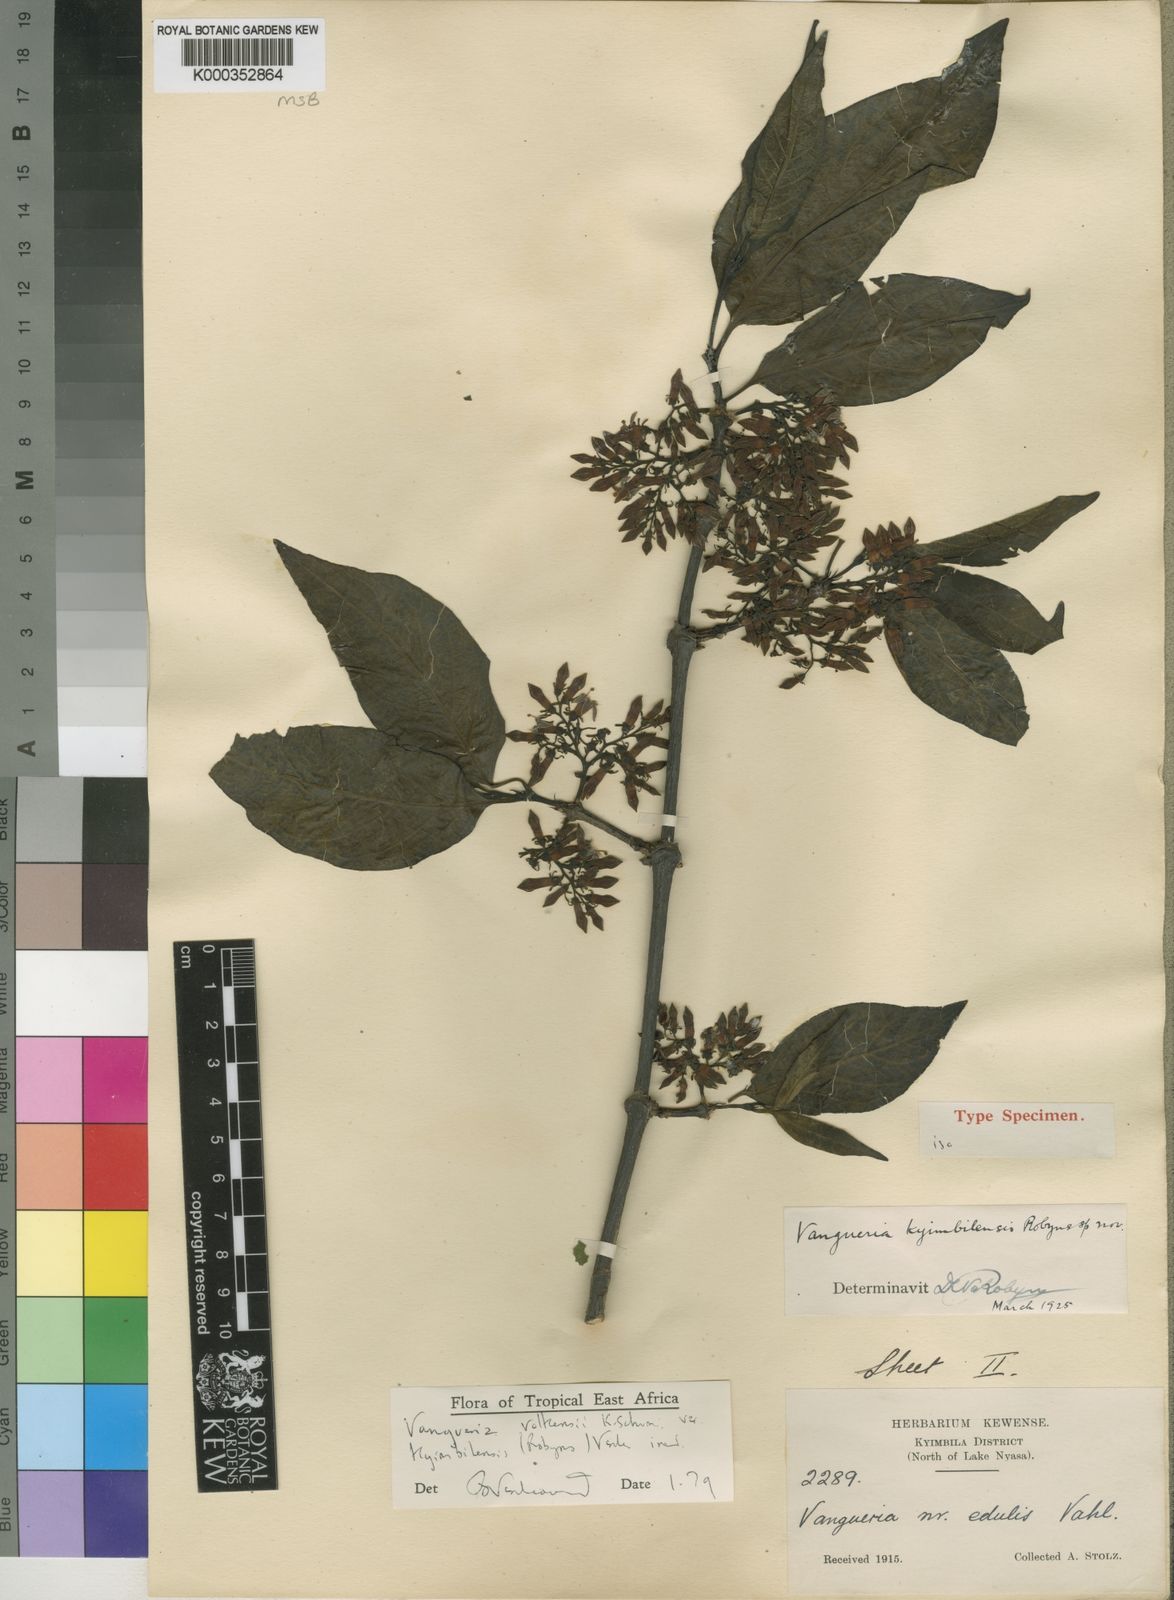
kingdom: Plantae
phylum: Tracheophyta
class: Magnoliopsida
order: Gentianales
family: Rubiaceae
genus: Vangueria
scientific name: Vangueria volkensii
